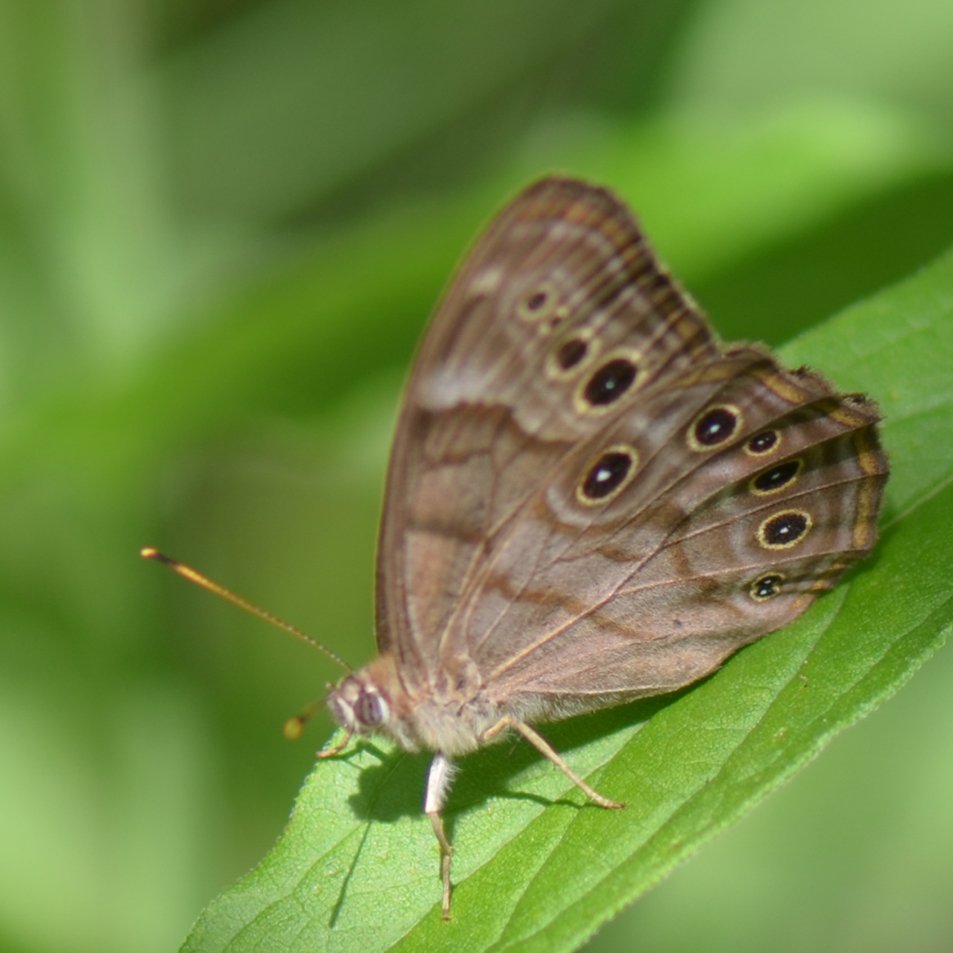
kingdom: Animalia
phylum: Arthropoda
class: Insecta
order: Lepidoptera
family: Nymphalidae
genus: Lethe
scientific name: Lethe anthedon
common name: Northern Pearly-Eye
